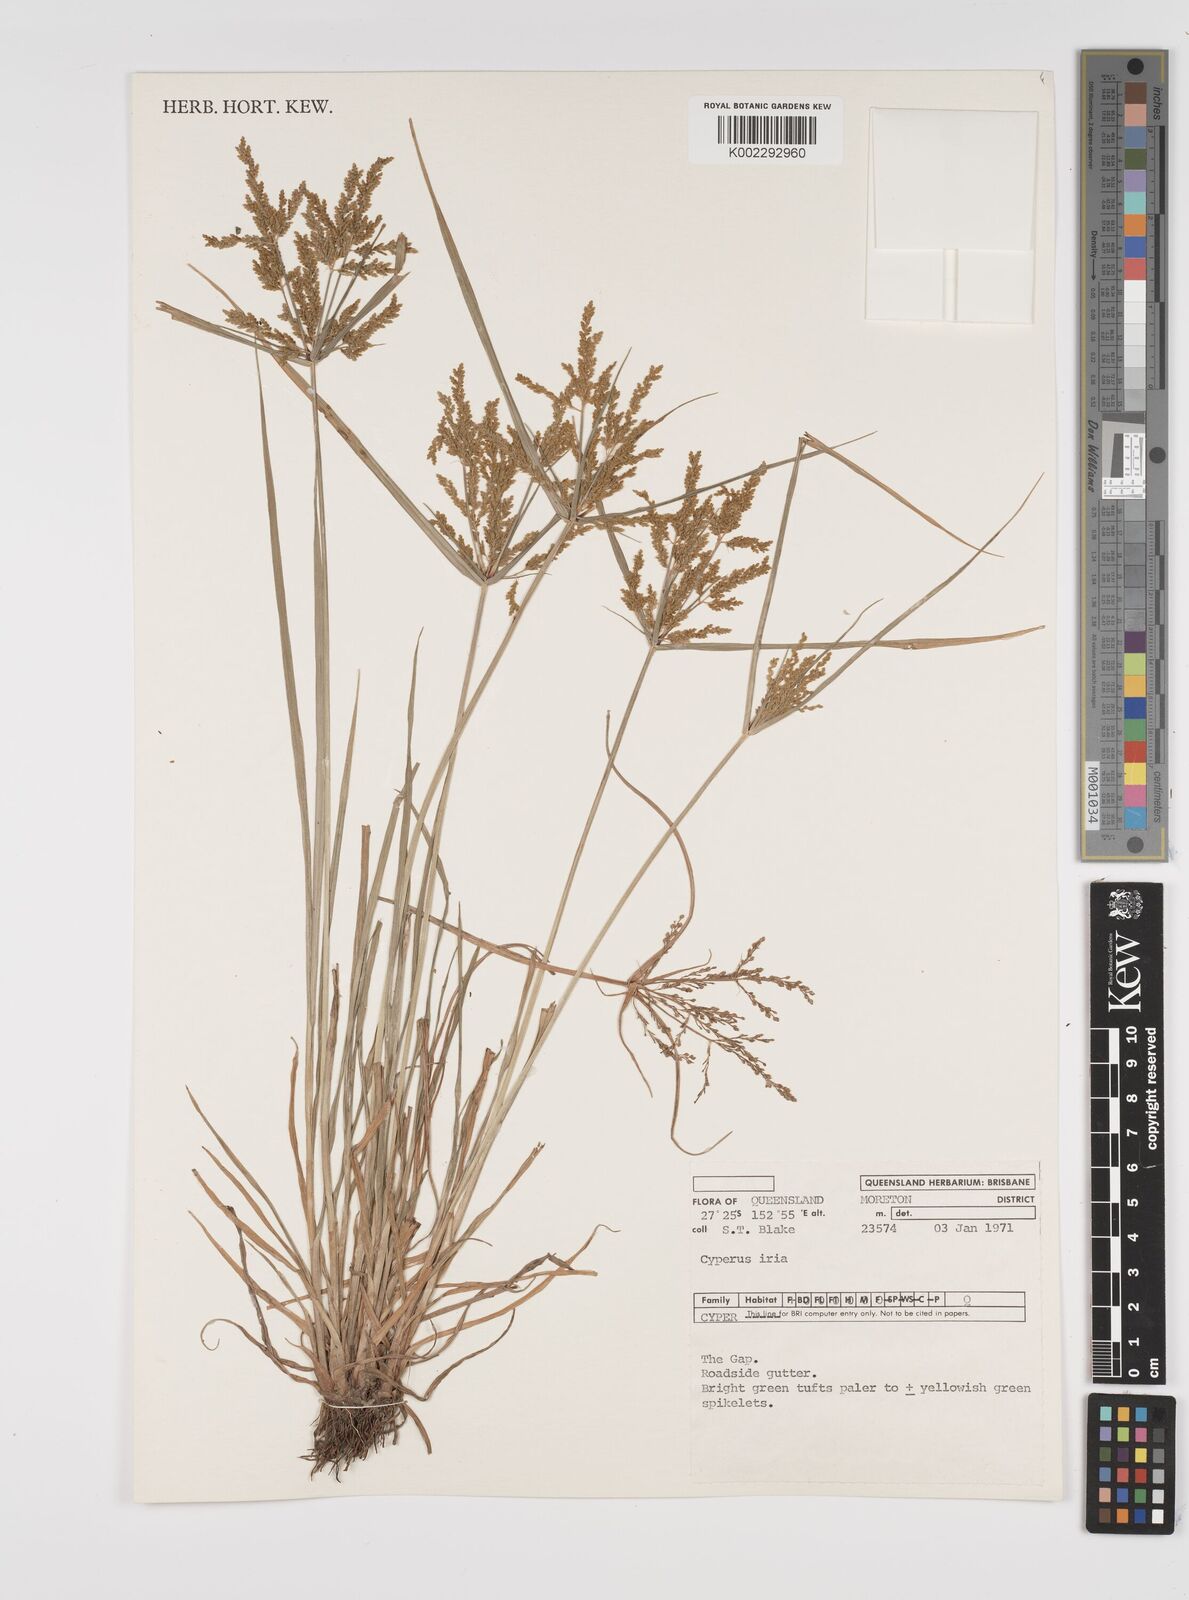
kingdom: Plantae
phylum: Tracheophyta
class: Liliopsida
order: Poales
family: Cyperaceae
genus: Cyperus
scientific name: Cyperus iria
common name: Ricefield flatsedge
